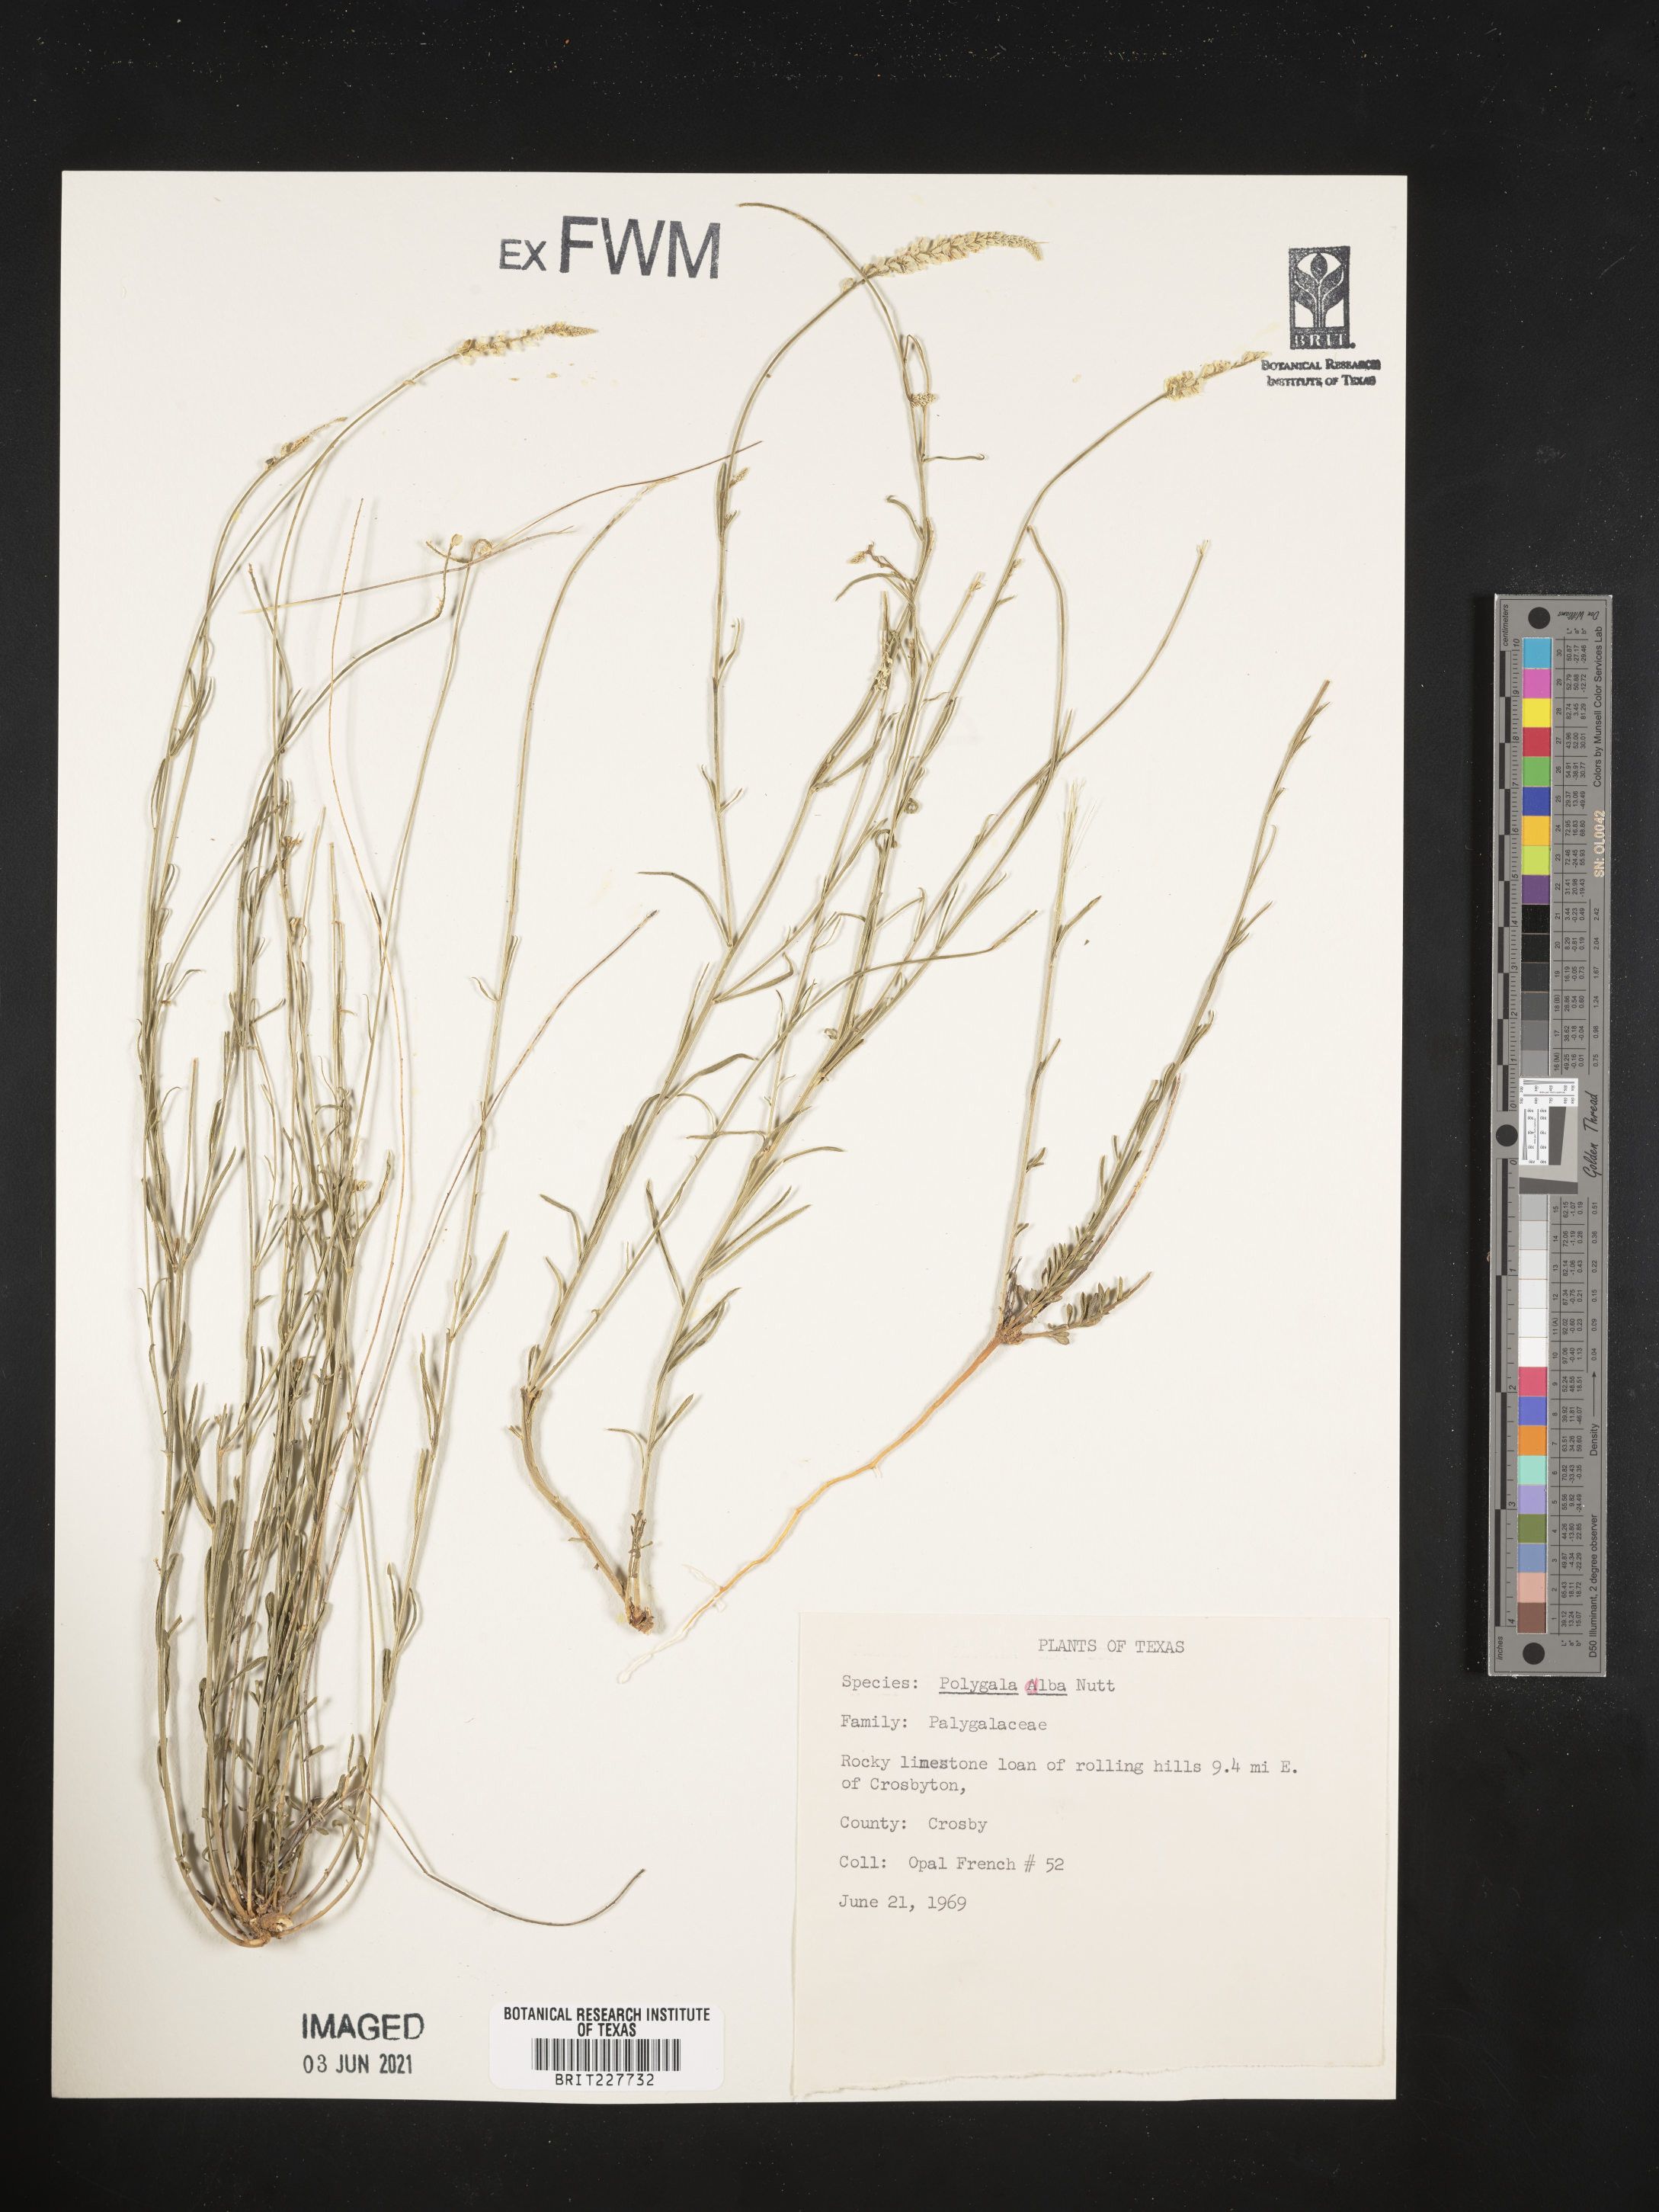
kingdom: Plantae
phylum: Tracheophyta
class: Magnoliopsida
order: Fabales
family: Polygalaceae
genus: Polygala
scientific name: Polygala alba
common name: White milkwort
